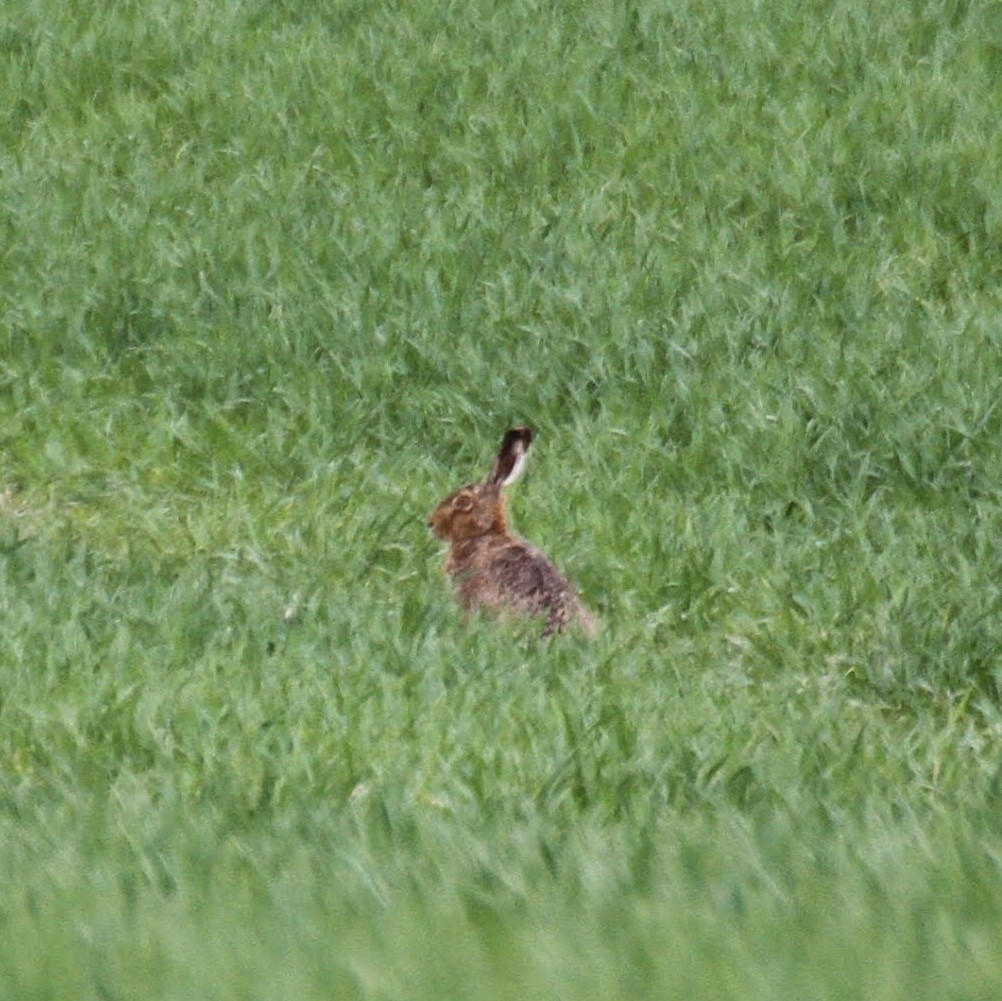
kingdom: Animalia
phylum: Chordata
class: Mammalia
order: Lagomorpha
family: Leporidae
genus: Lepus
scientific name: Lepus europaeus
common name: Hare
